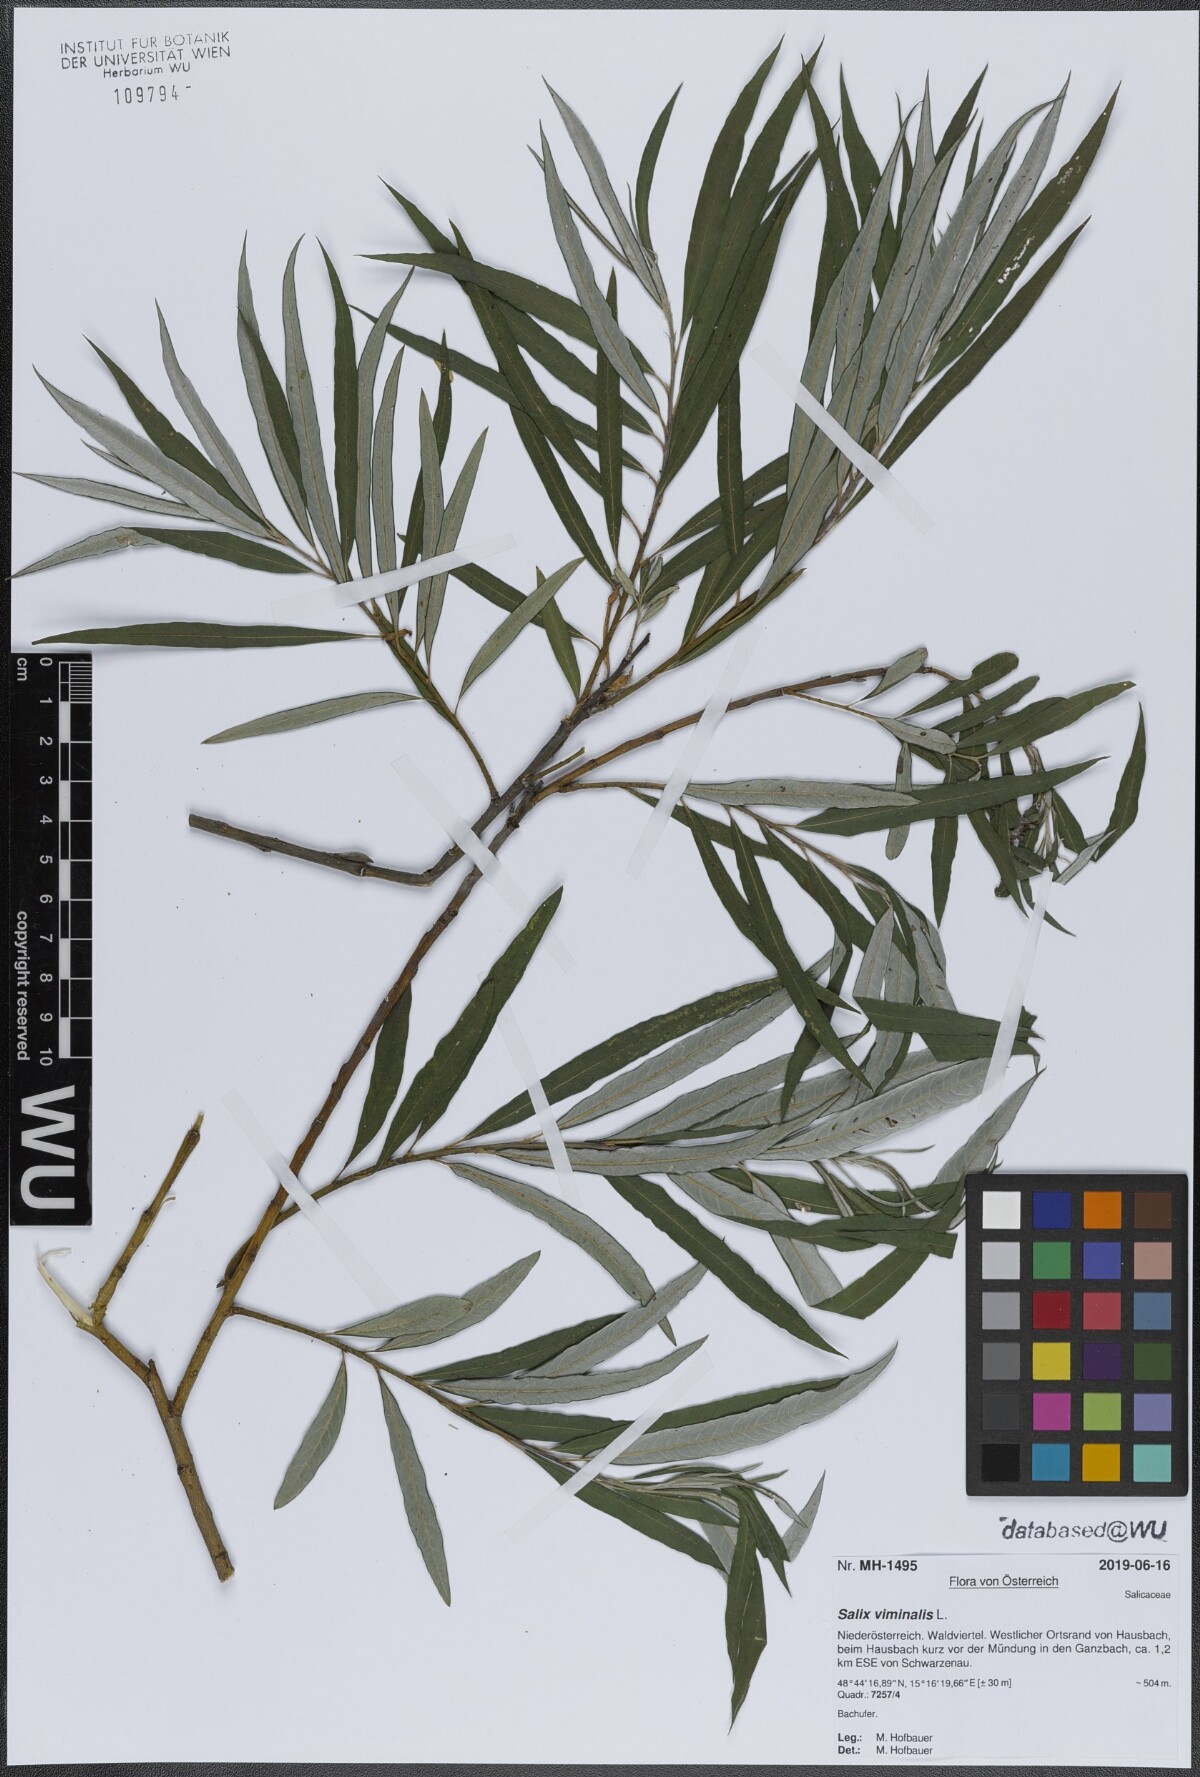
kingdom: Plantae
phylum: Tracheophyta
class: Magnoliopsida
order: Malpighiales
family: Salicaceae
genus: Salix
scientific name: Salix viminalis
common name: Osier
